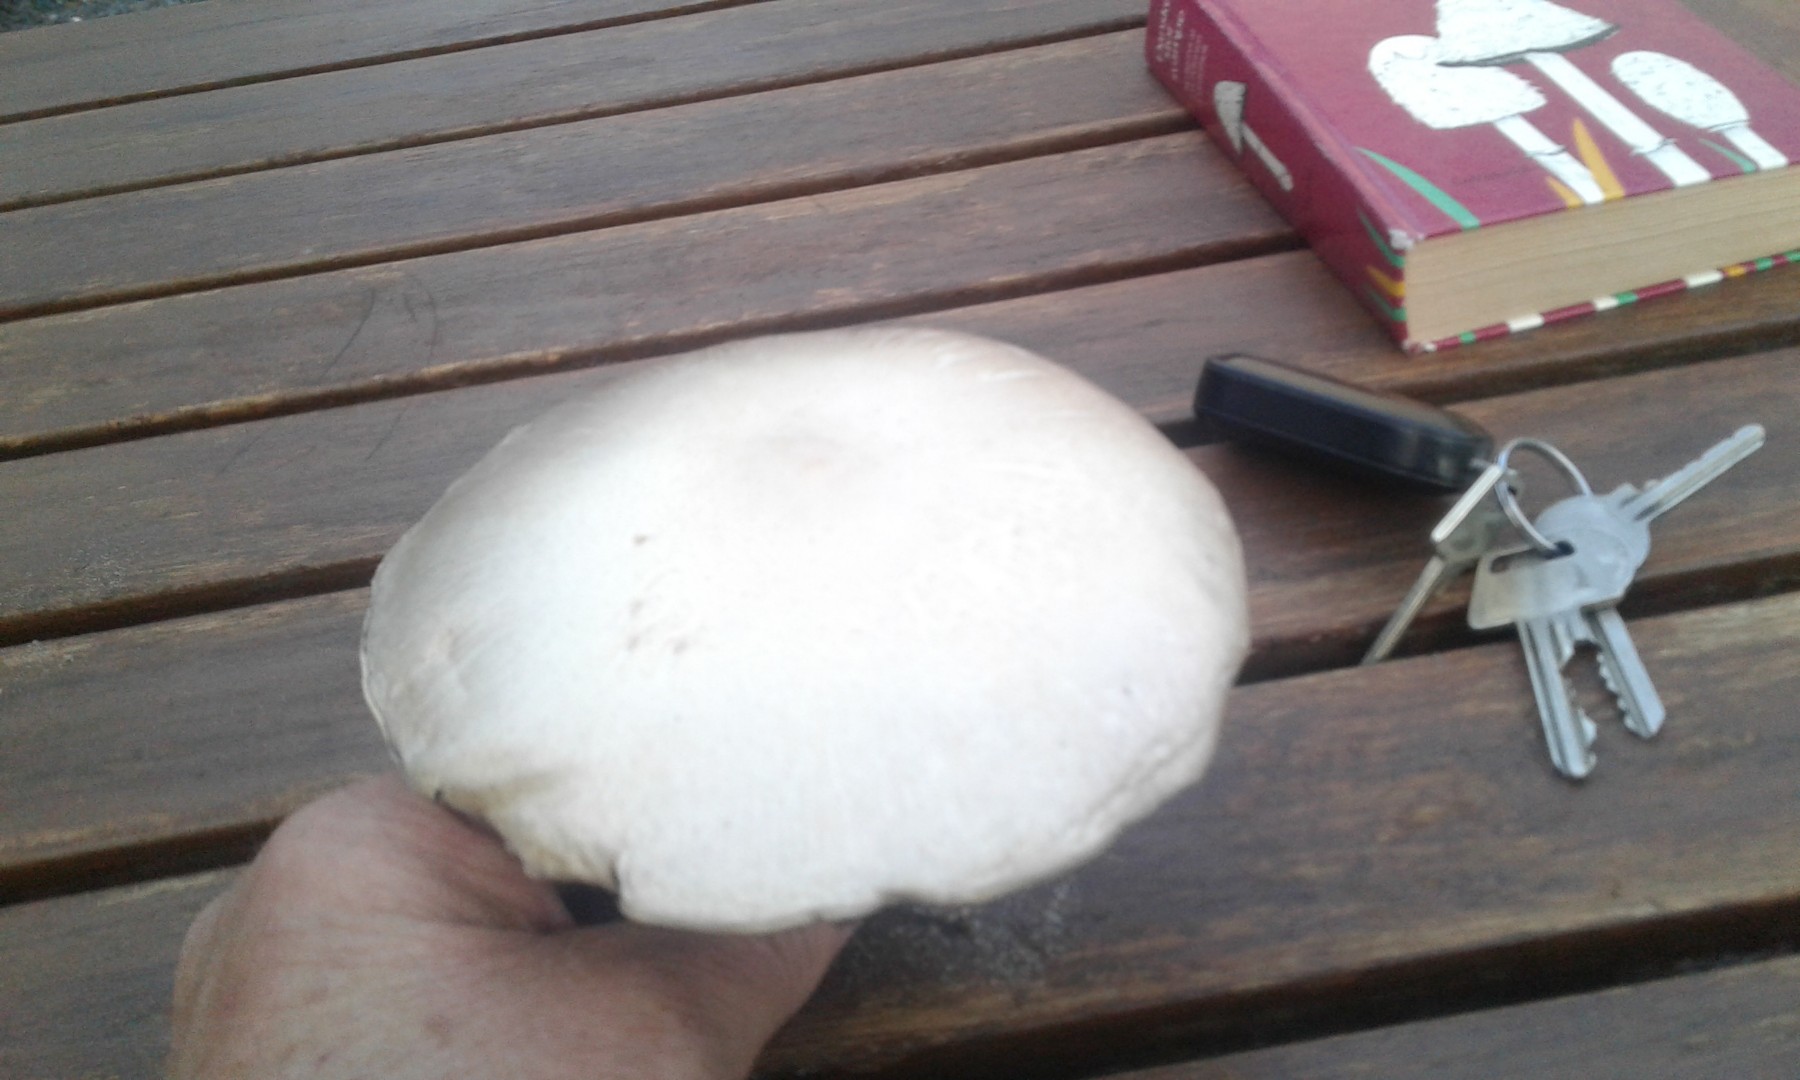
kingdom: Fungi
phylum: Basidiomycota
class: Agaricomycetes
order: Agaricales
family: Agaricaceae
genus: Agaricus
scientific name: Agaricus arvensis
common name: ager-champignon
